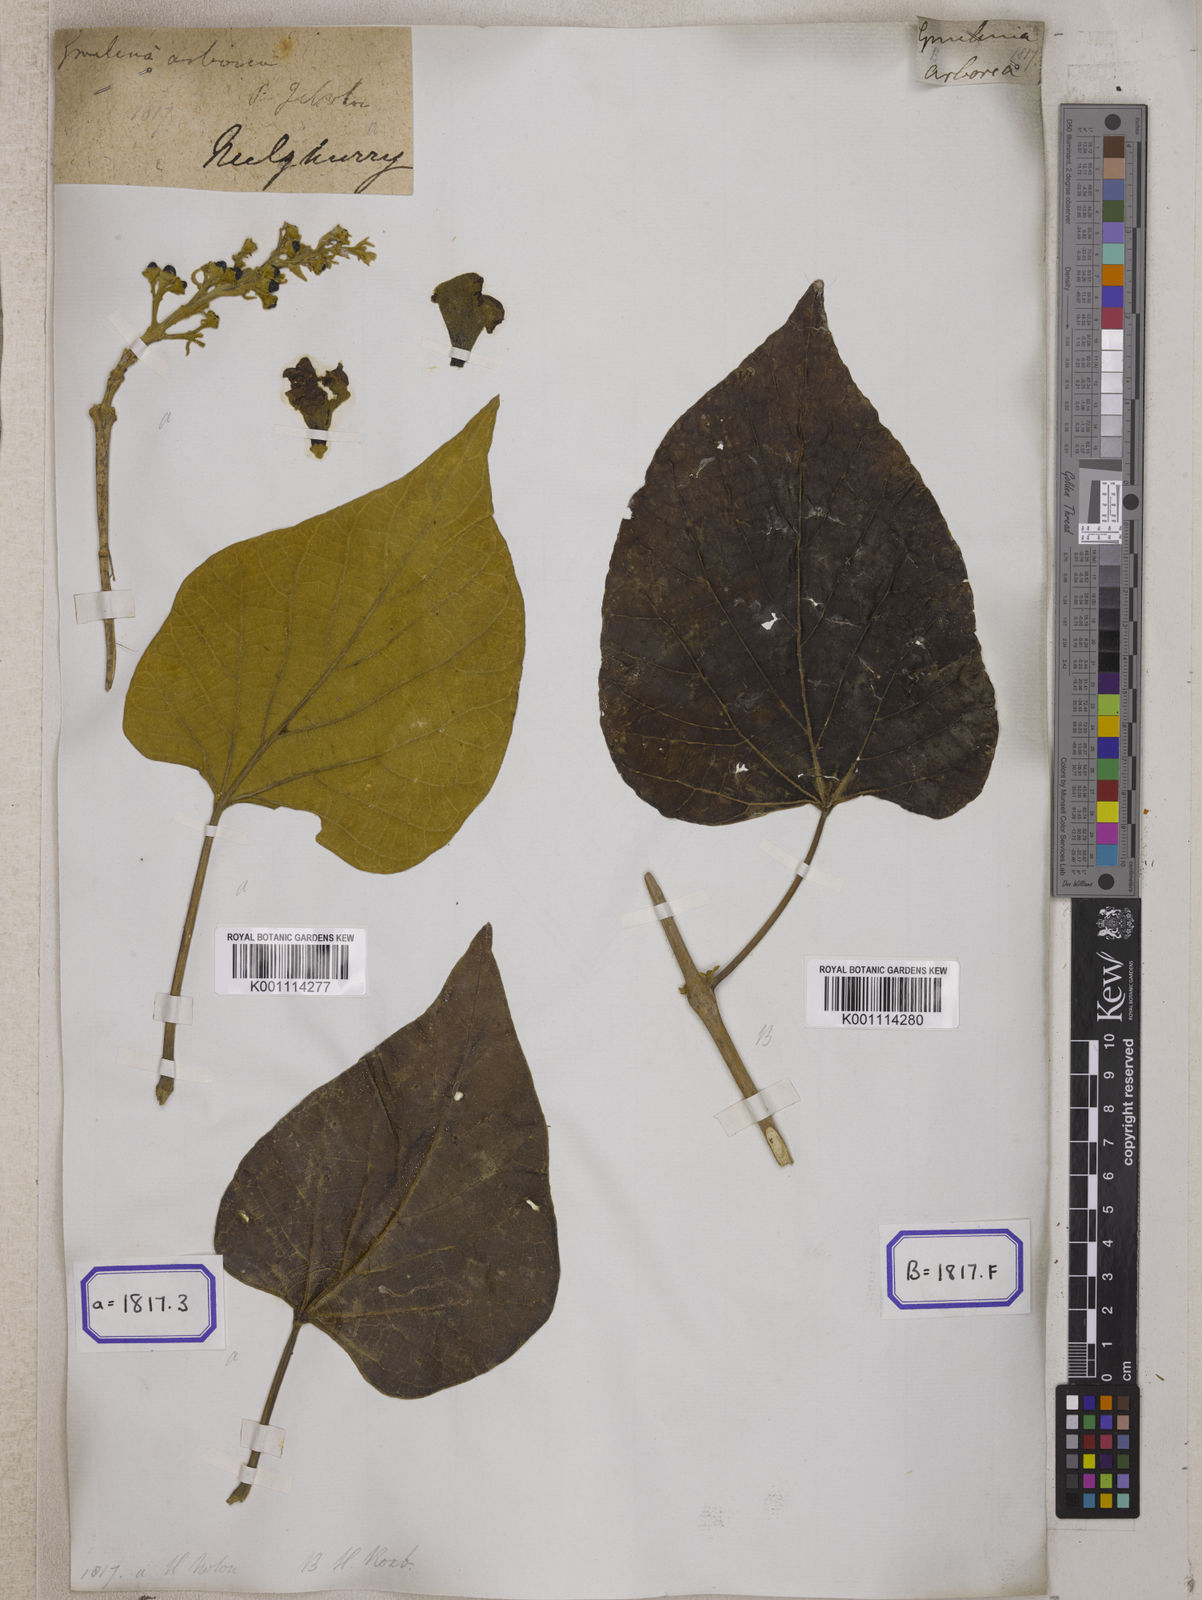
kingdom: Plantae
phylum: Tracheophyta
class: Magnoliopsida
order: Lamiales
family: Lamiaceae
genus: Gmelina
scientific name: Gmelina
